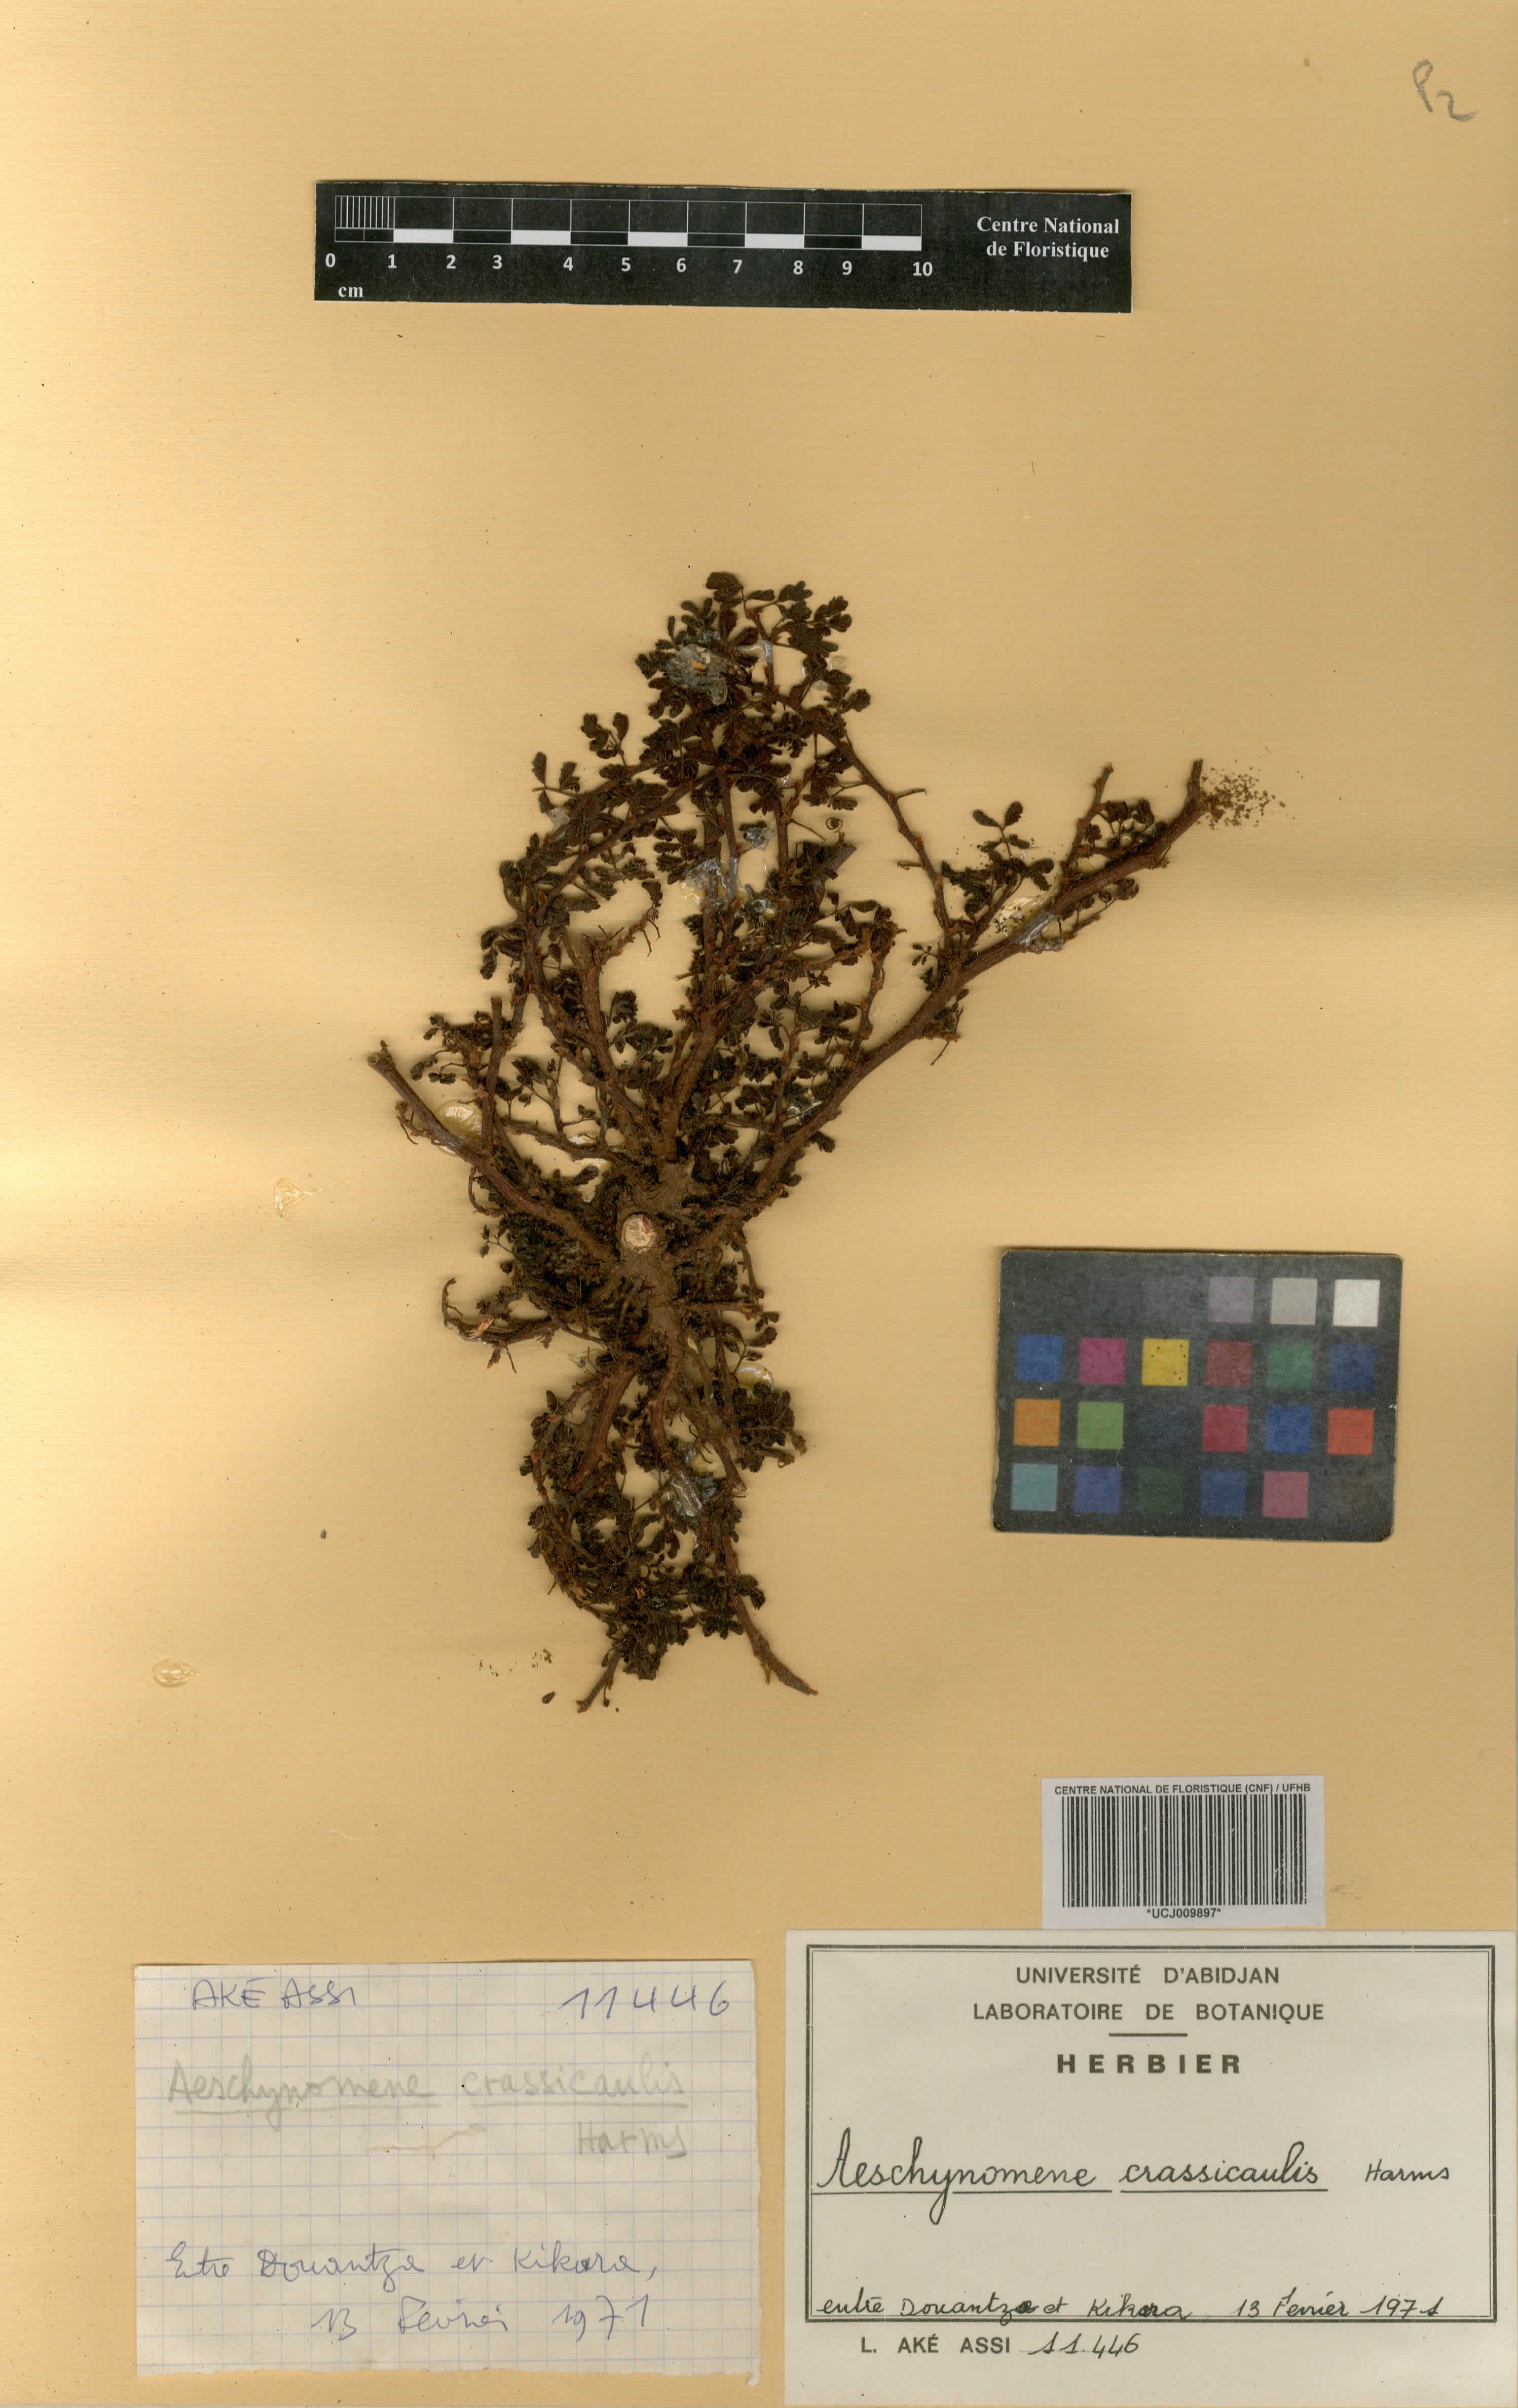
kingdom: Plantae
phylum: Tracheophyta
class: Magnoliopsida
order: Fabales
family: Fabaceae
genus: Aeschynomene
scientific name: Aeschynomene crassicaulis
